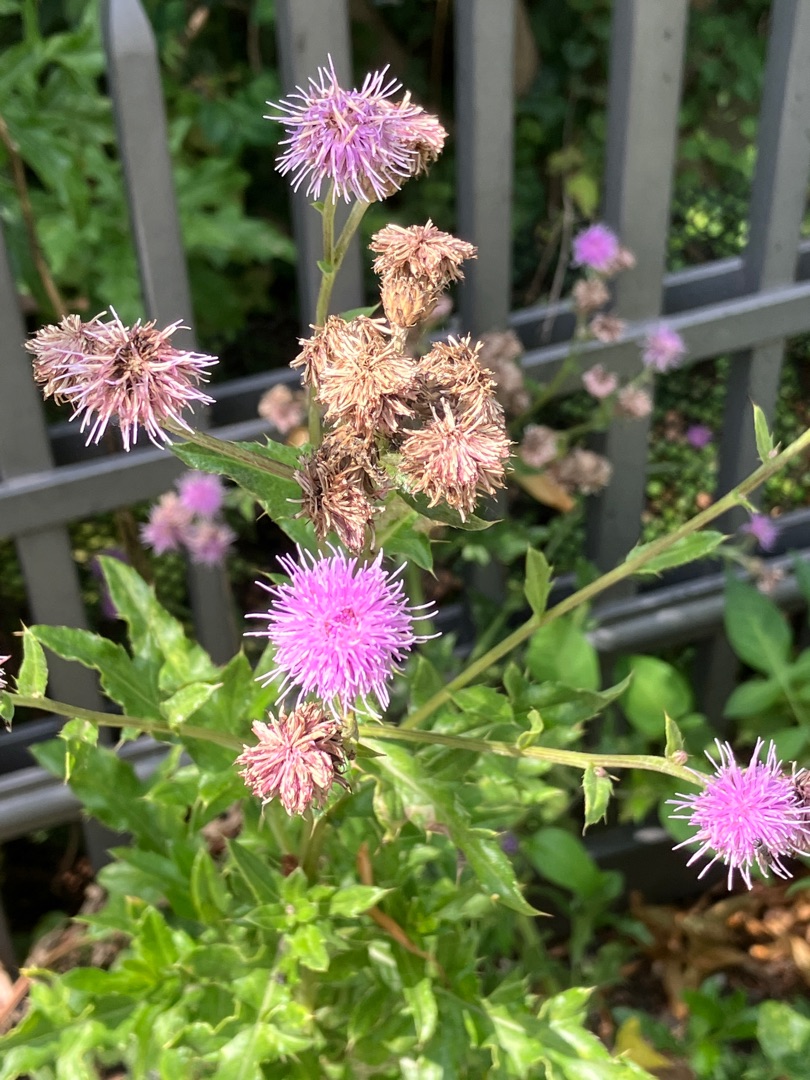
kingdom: Plantae
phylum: Tracheophyta
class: Magnoliopsida
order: Asterales
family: Asteraceae
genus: Cirsium
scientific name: Cirsium arvense
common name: Ager-tidsel
